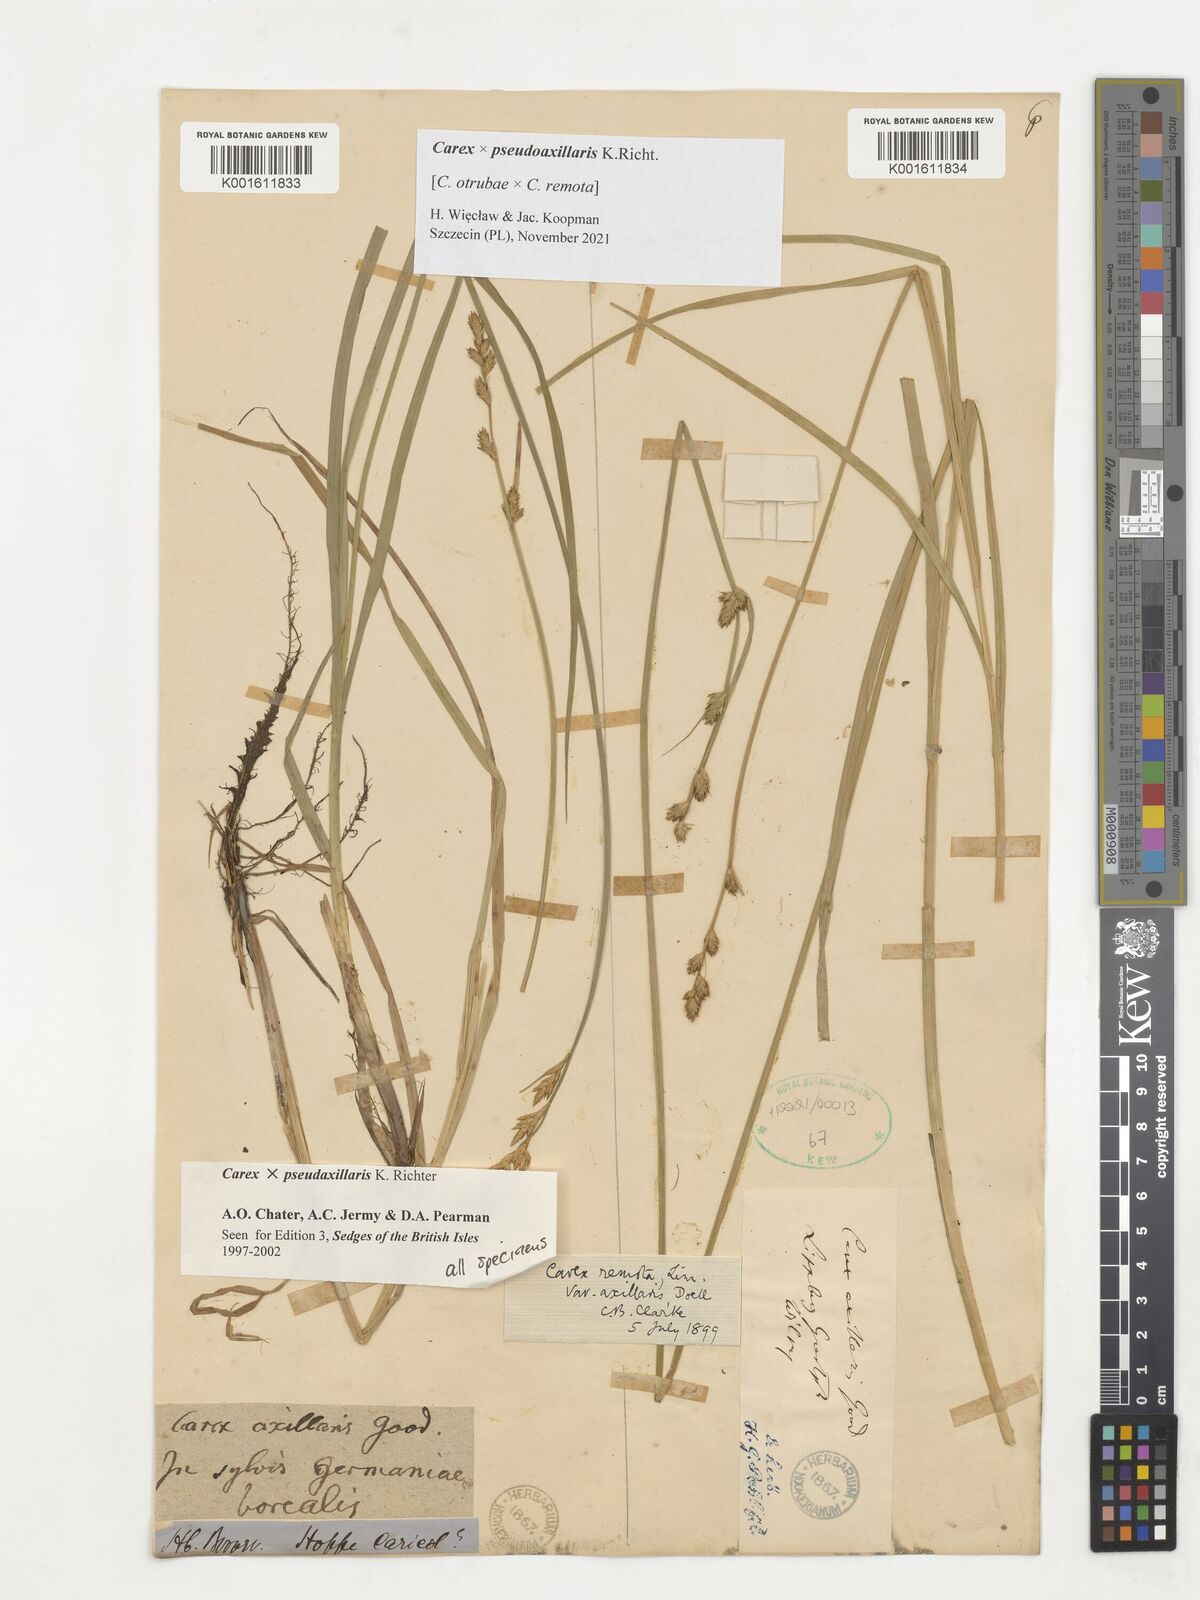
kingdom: Plantae
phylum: Tracheophyta
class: Liliopsida
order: Poales
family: Cyperaceae
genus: Carex
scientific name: Carex pseudoaxillaris
